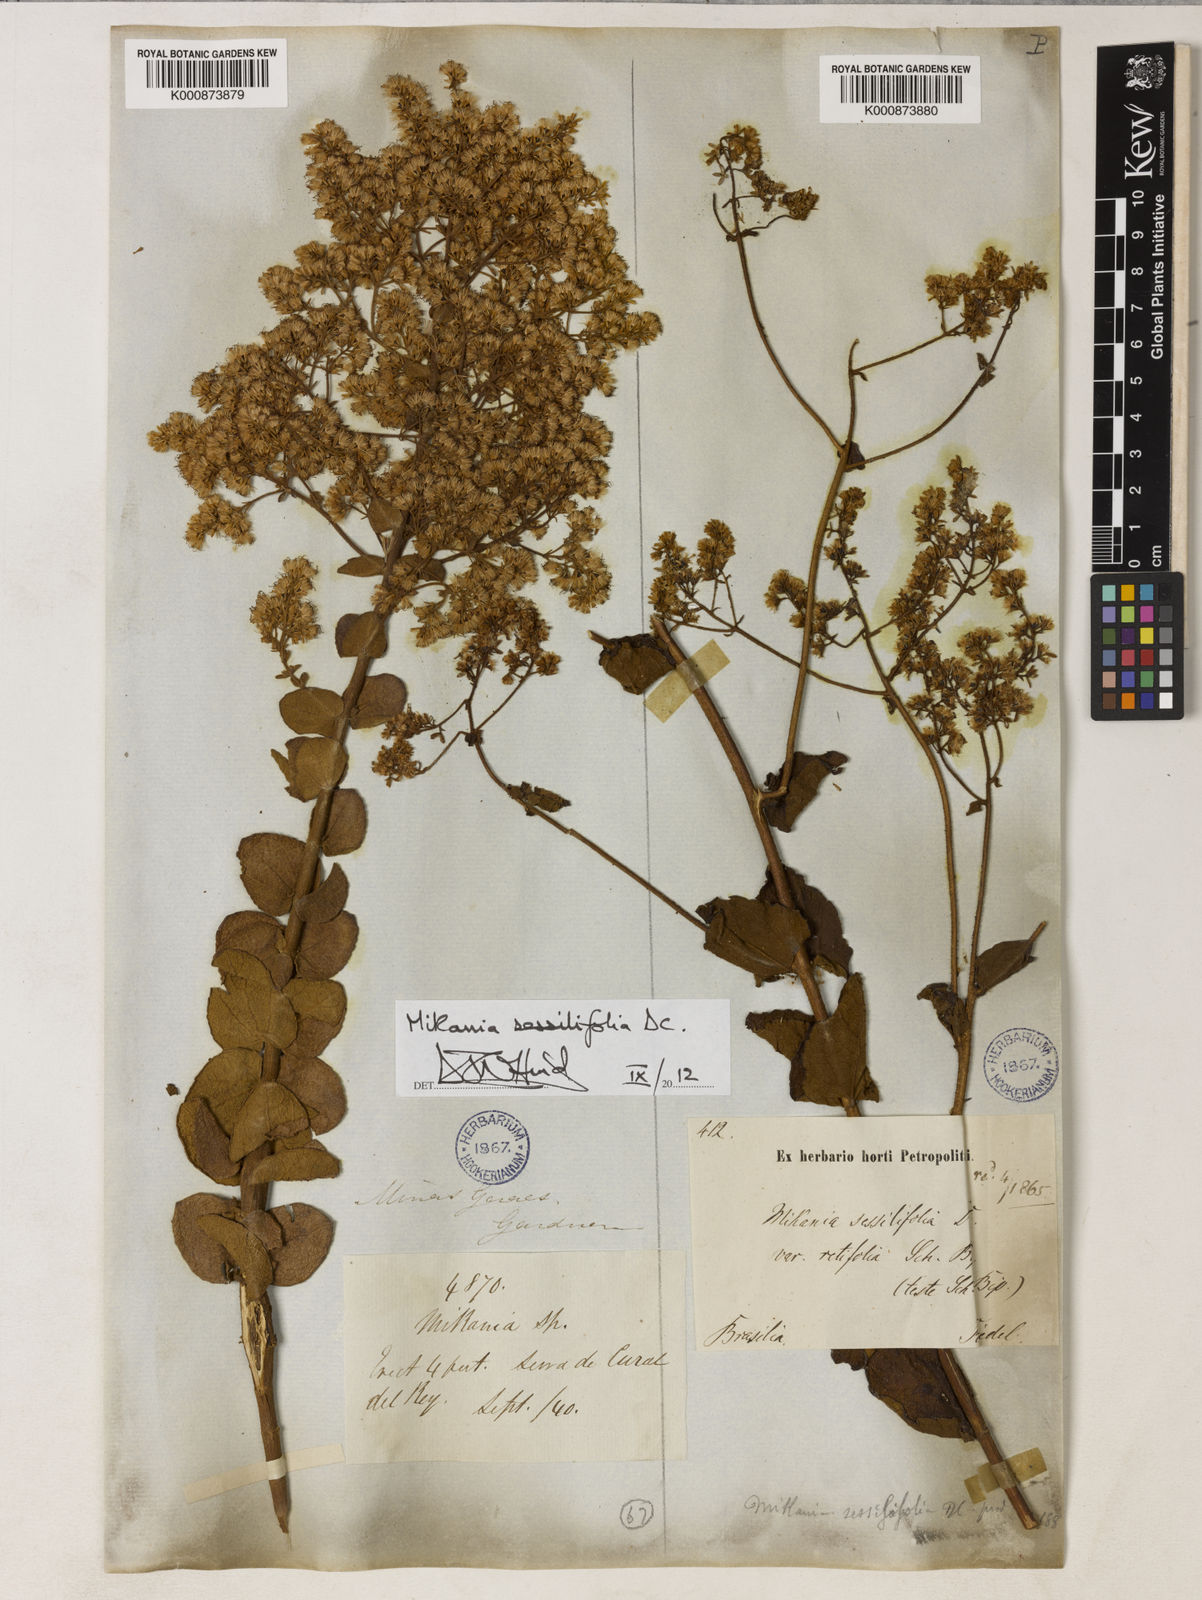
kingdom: Plantae
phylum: Tracheophyta
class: Magnoliopsida
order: Asterales
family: Asteraceae
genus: Mikania
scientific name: Mikania sessilifolia
